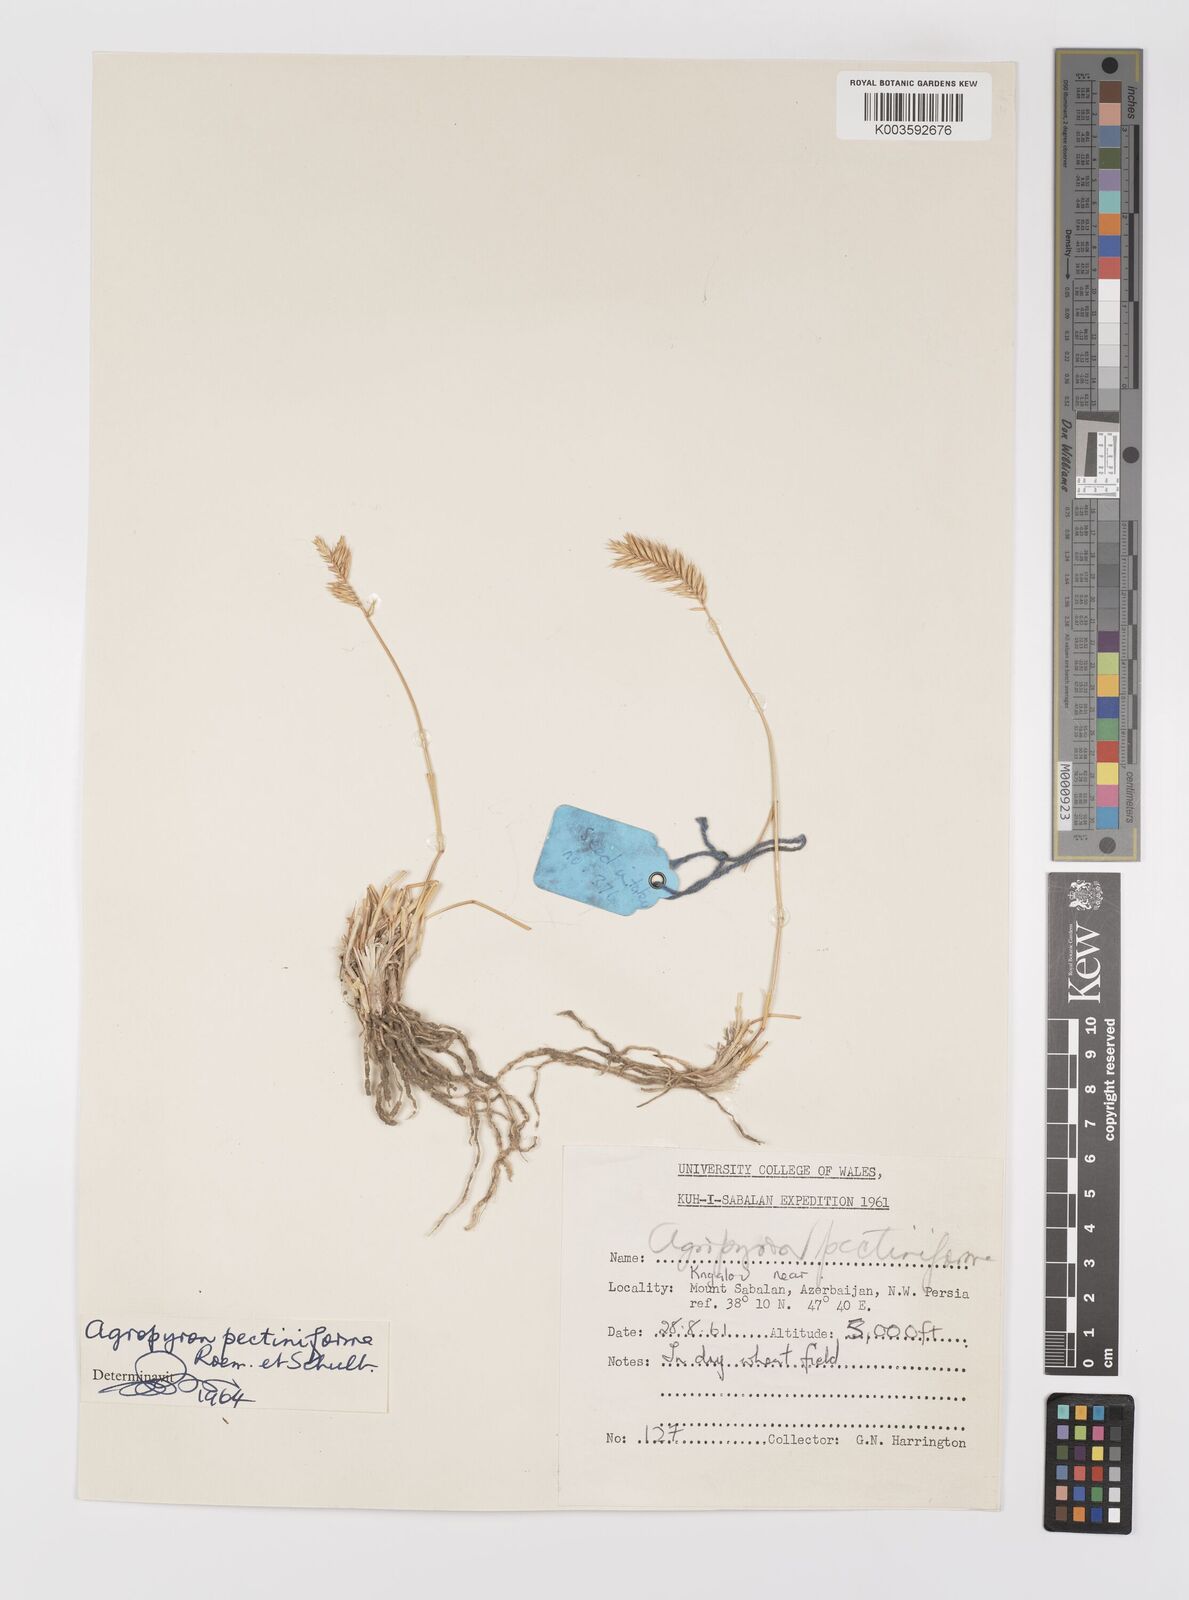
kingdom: Plantae
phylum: Tracheophyta
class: Liliopsida
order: Poales
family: Poaceae
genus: Agropyron
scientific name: Agropyron
